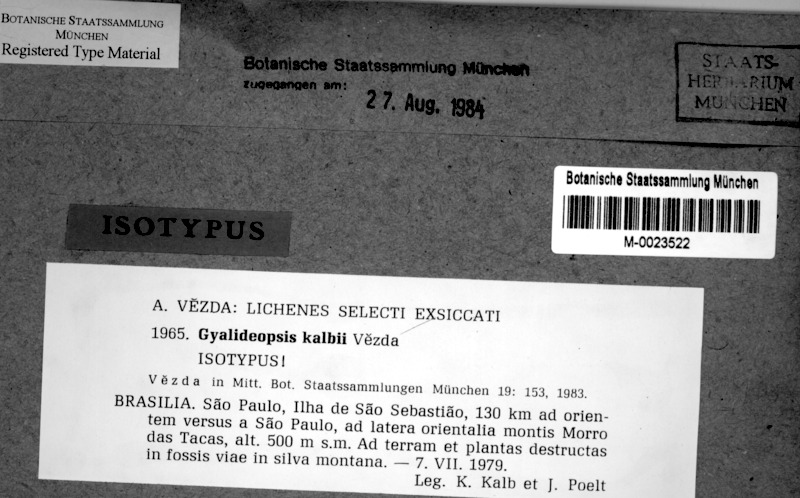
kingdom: Fungi
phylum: Ascomycota
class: Lecanoromycetes
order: Ostropales
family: Gomphillaceae
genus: Gyalideopsis
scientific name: Gyalideopsis kalbii
